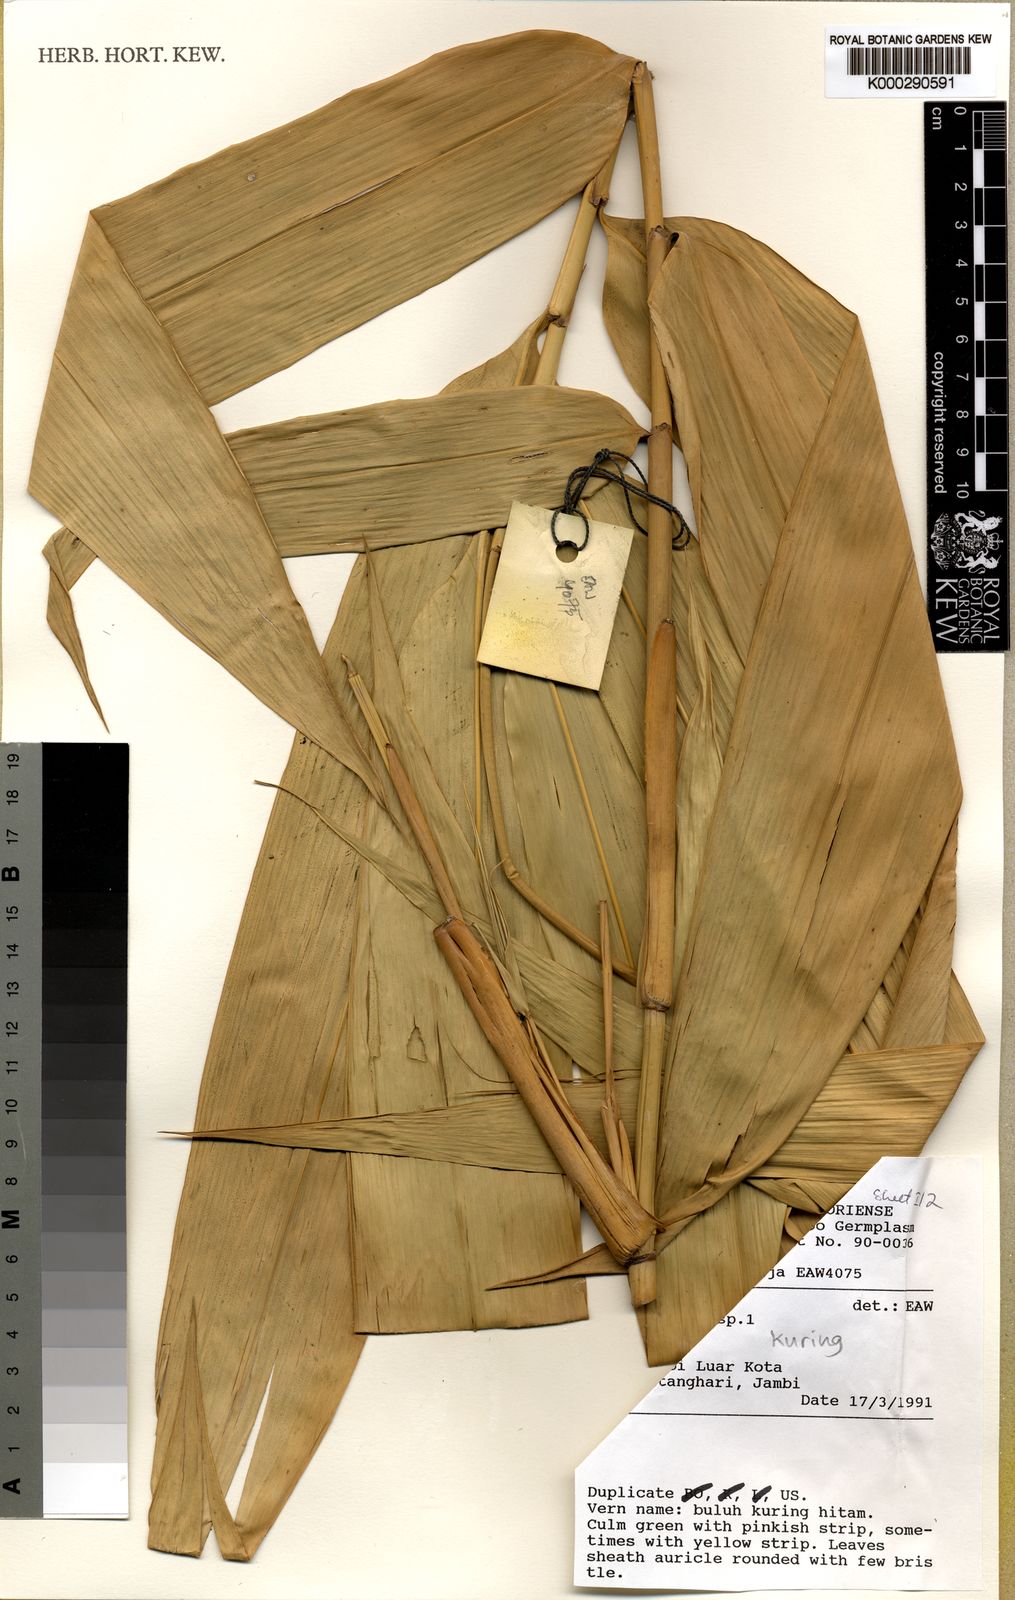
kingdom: Plantae
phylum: Tracheophyta
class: Liliopsida
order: Poales
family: Poaceae
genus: Gigantochloa
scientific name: Gigantochloa kuring
